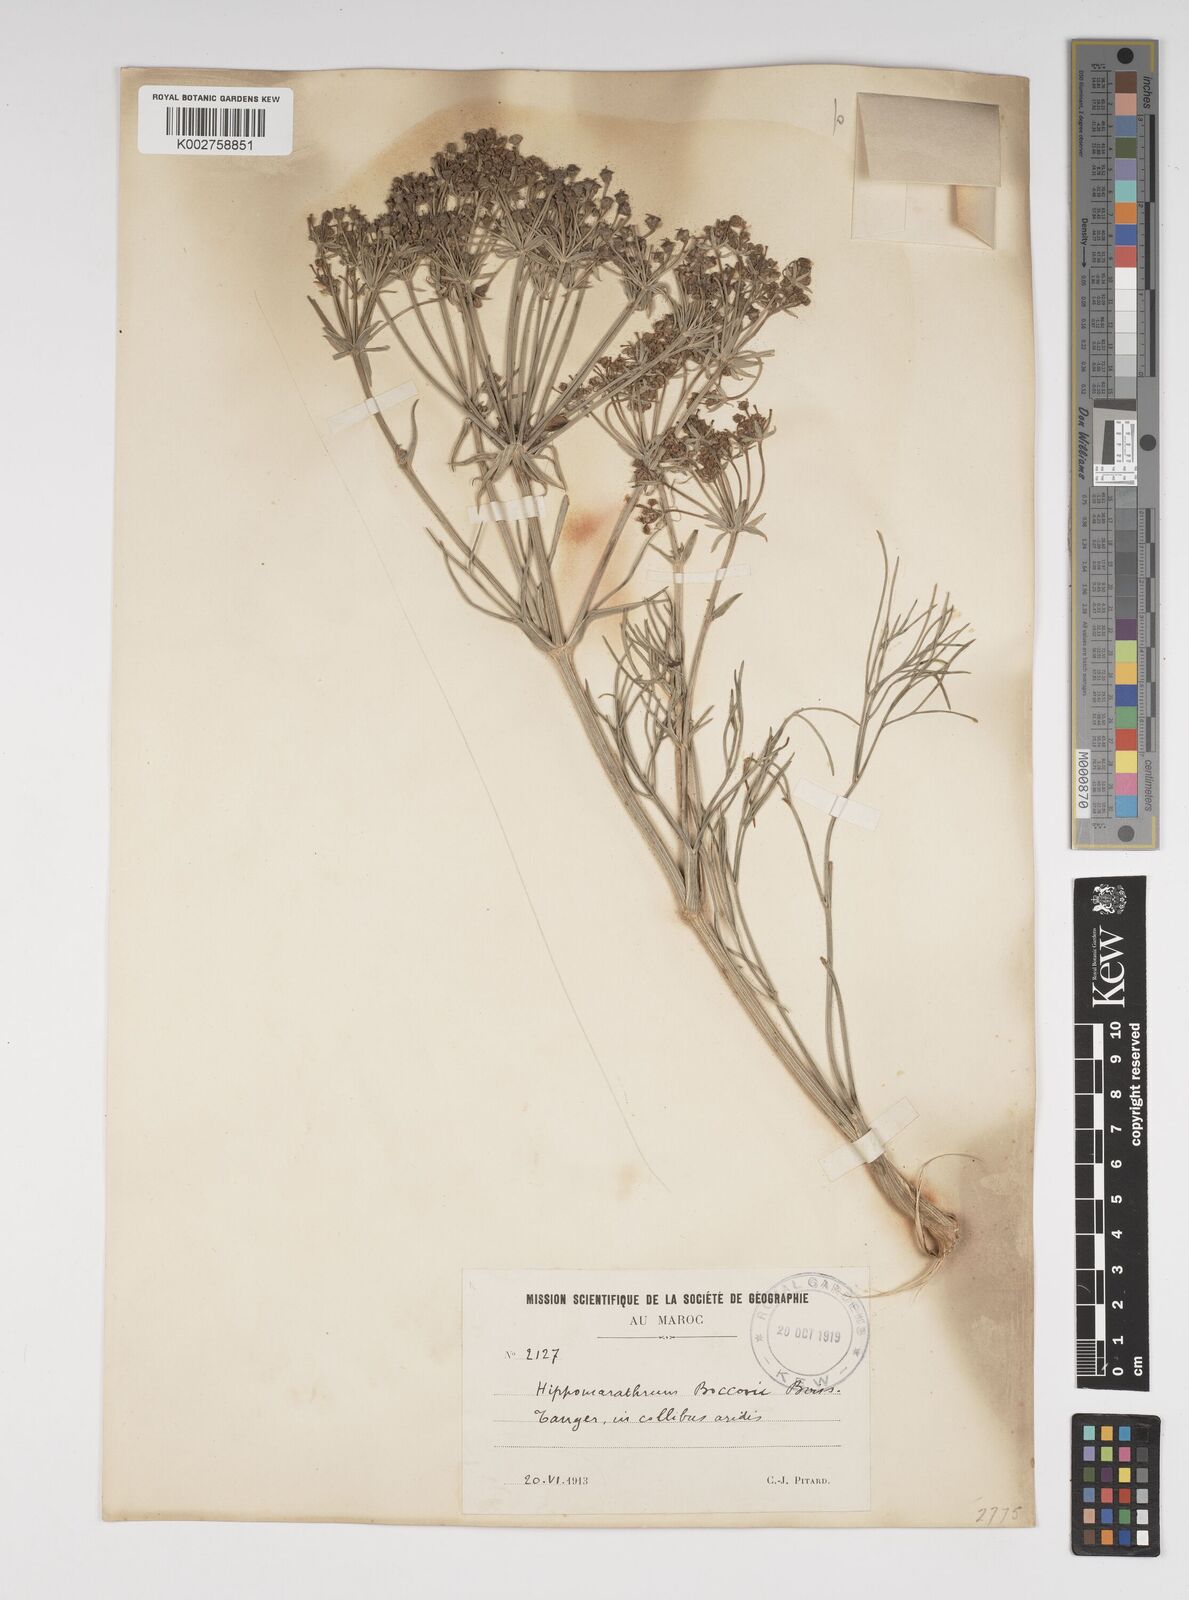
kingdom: Plantae
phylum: Tracheophyta
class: Magnoliopsida
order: Apiales
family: Apiaceae
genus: Cachrys
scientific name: Cachrys libanotis
